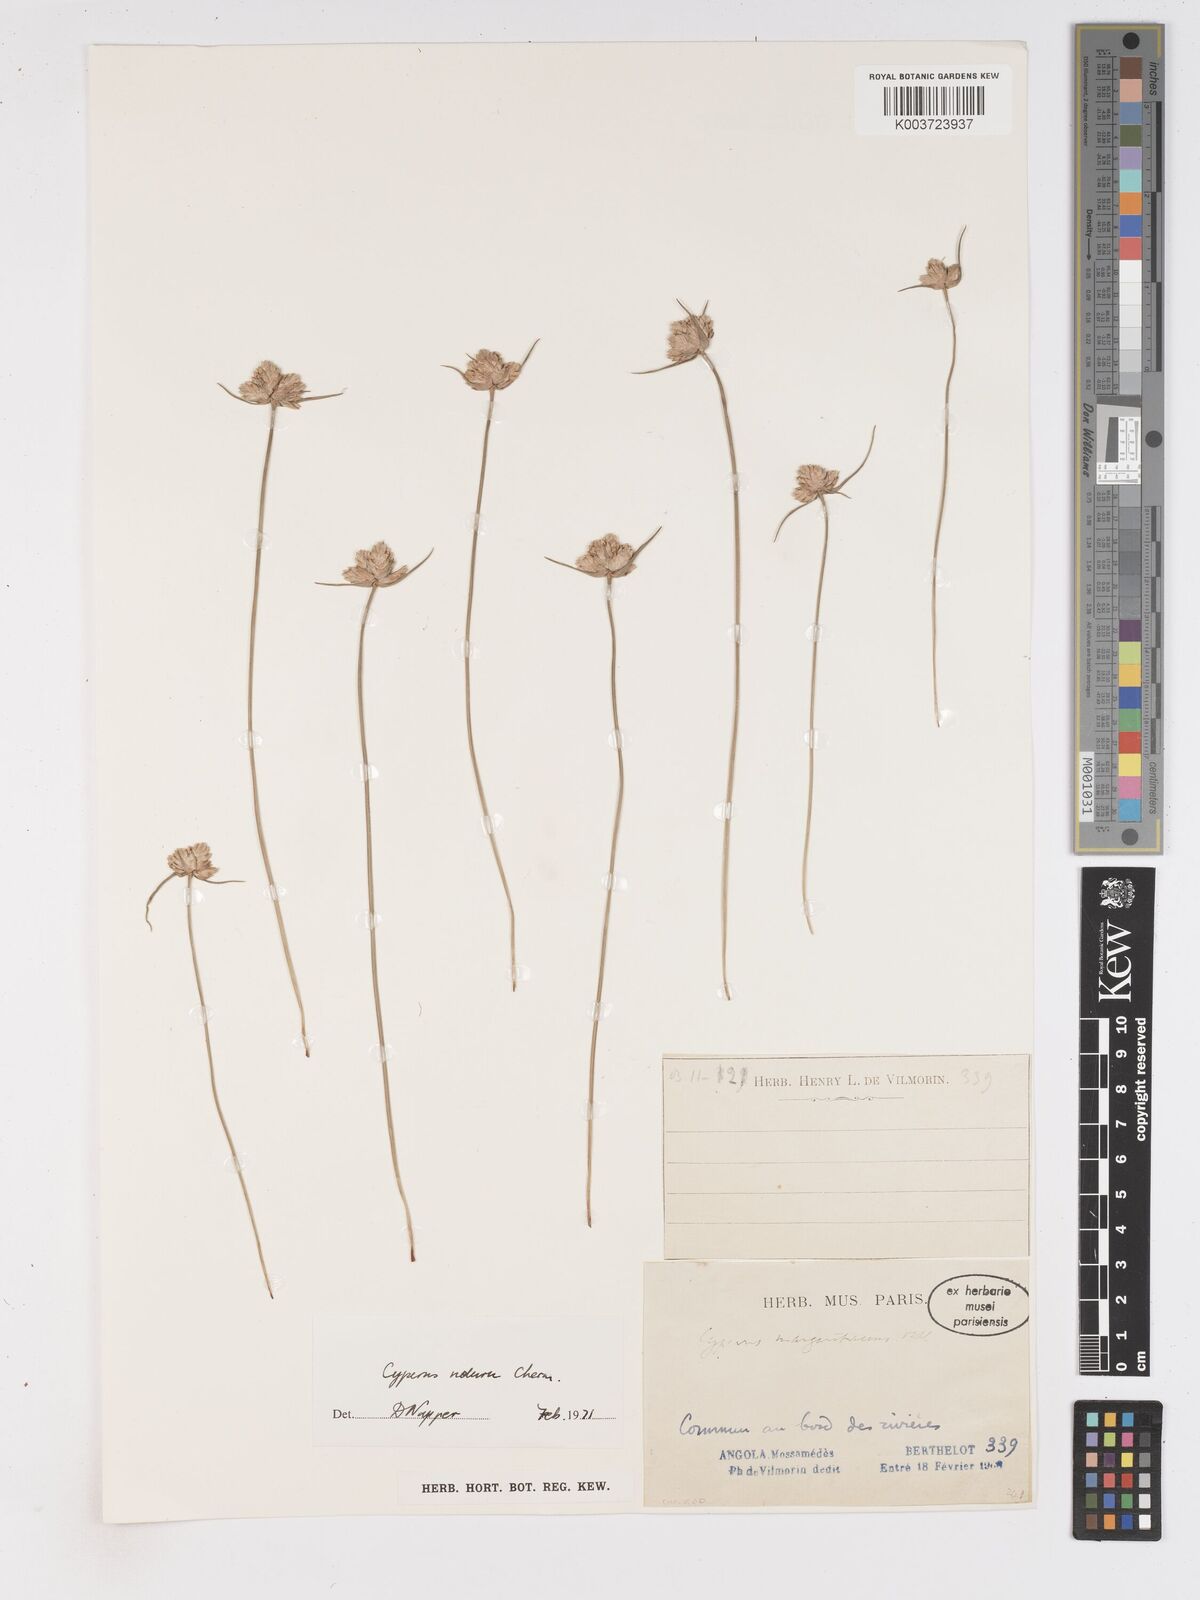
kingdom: Plantae
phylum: Tracheophyta
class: Liliopsida
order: Poales
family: Cyperaceae
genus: Cyperus
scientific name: Cyperus nduru
